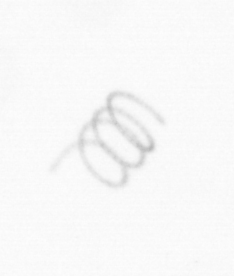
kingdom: Chromista
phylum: Ochrophyta
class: Bacillariophyceae
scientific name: Bacillariophyceae
